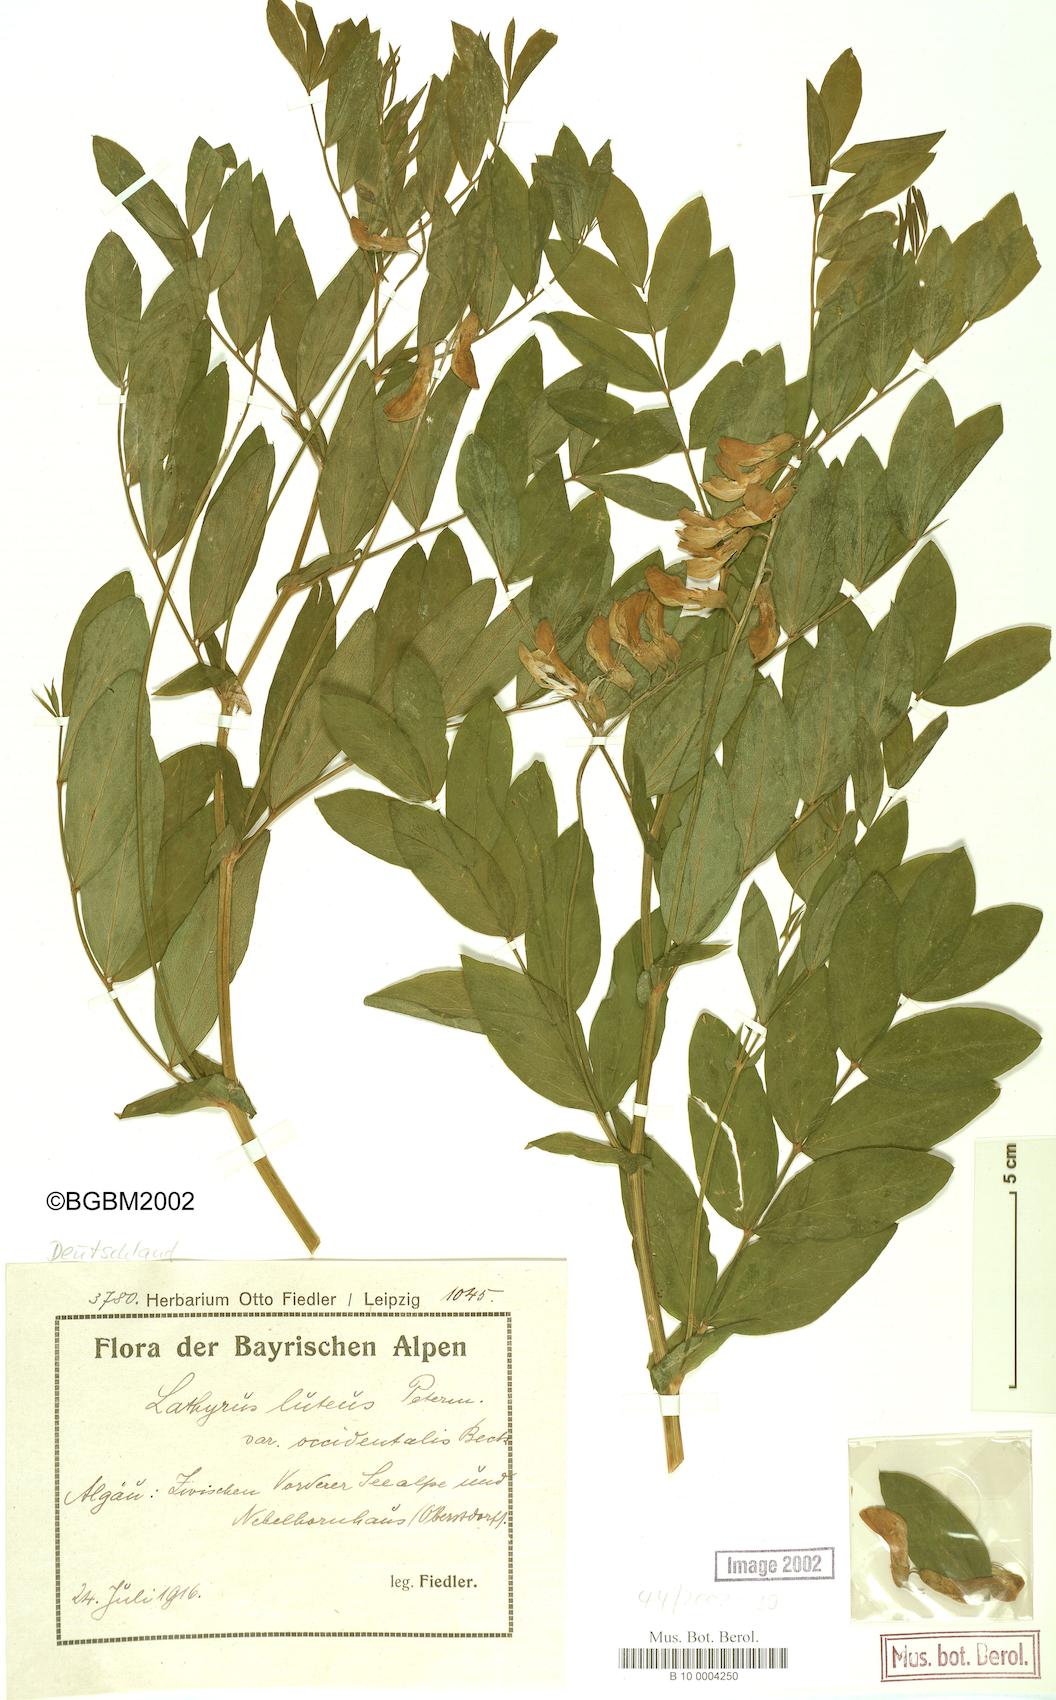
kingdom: Plantae
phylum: Tracheophyta
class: Magnoliopsida
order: Fabales
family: Fabaceae
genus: Lathyrus
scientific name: Lathyrus gmelinii
